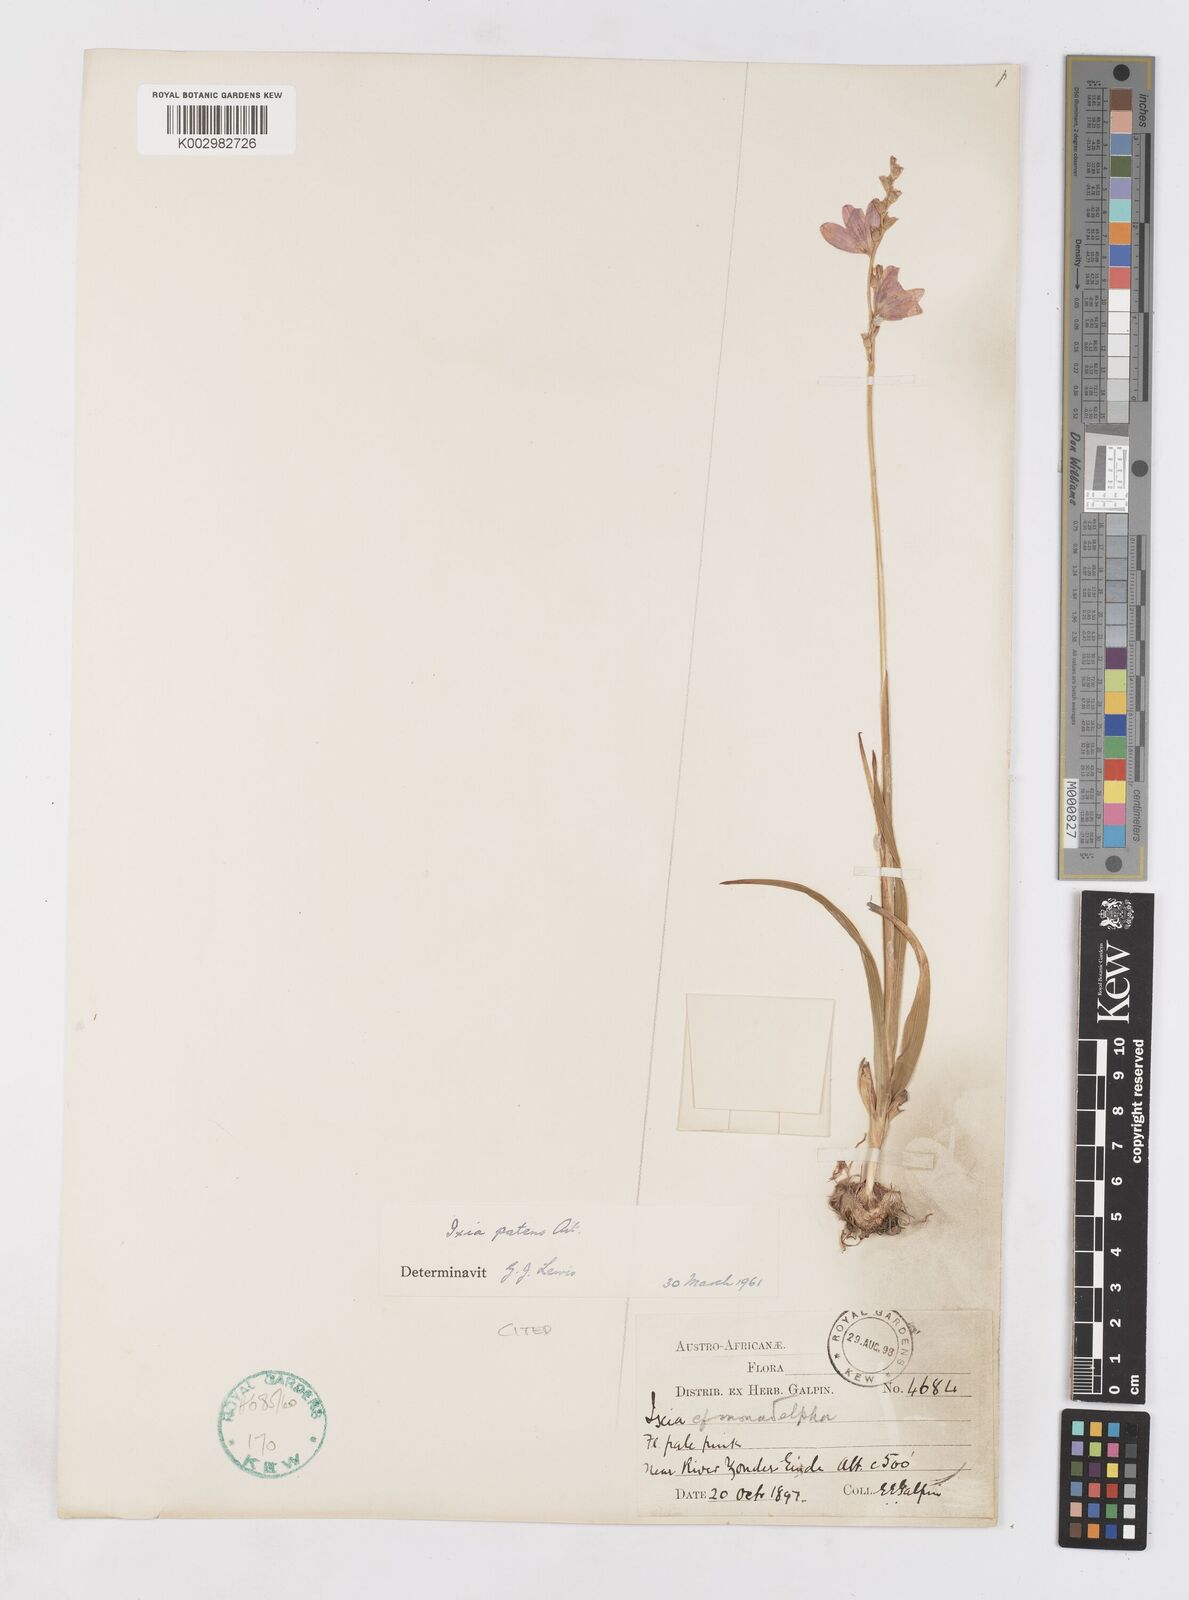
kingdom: Plantae
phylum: Tracheophyta
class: Liliopsida
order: Asparagales
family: Iridaceae
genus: Ixia
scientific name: Ixia patens
